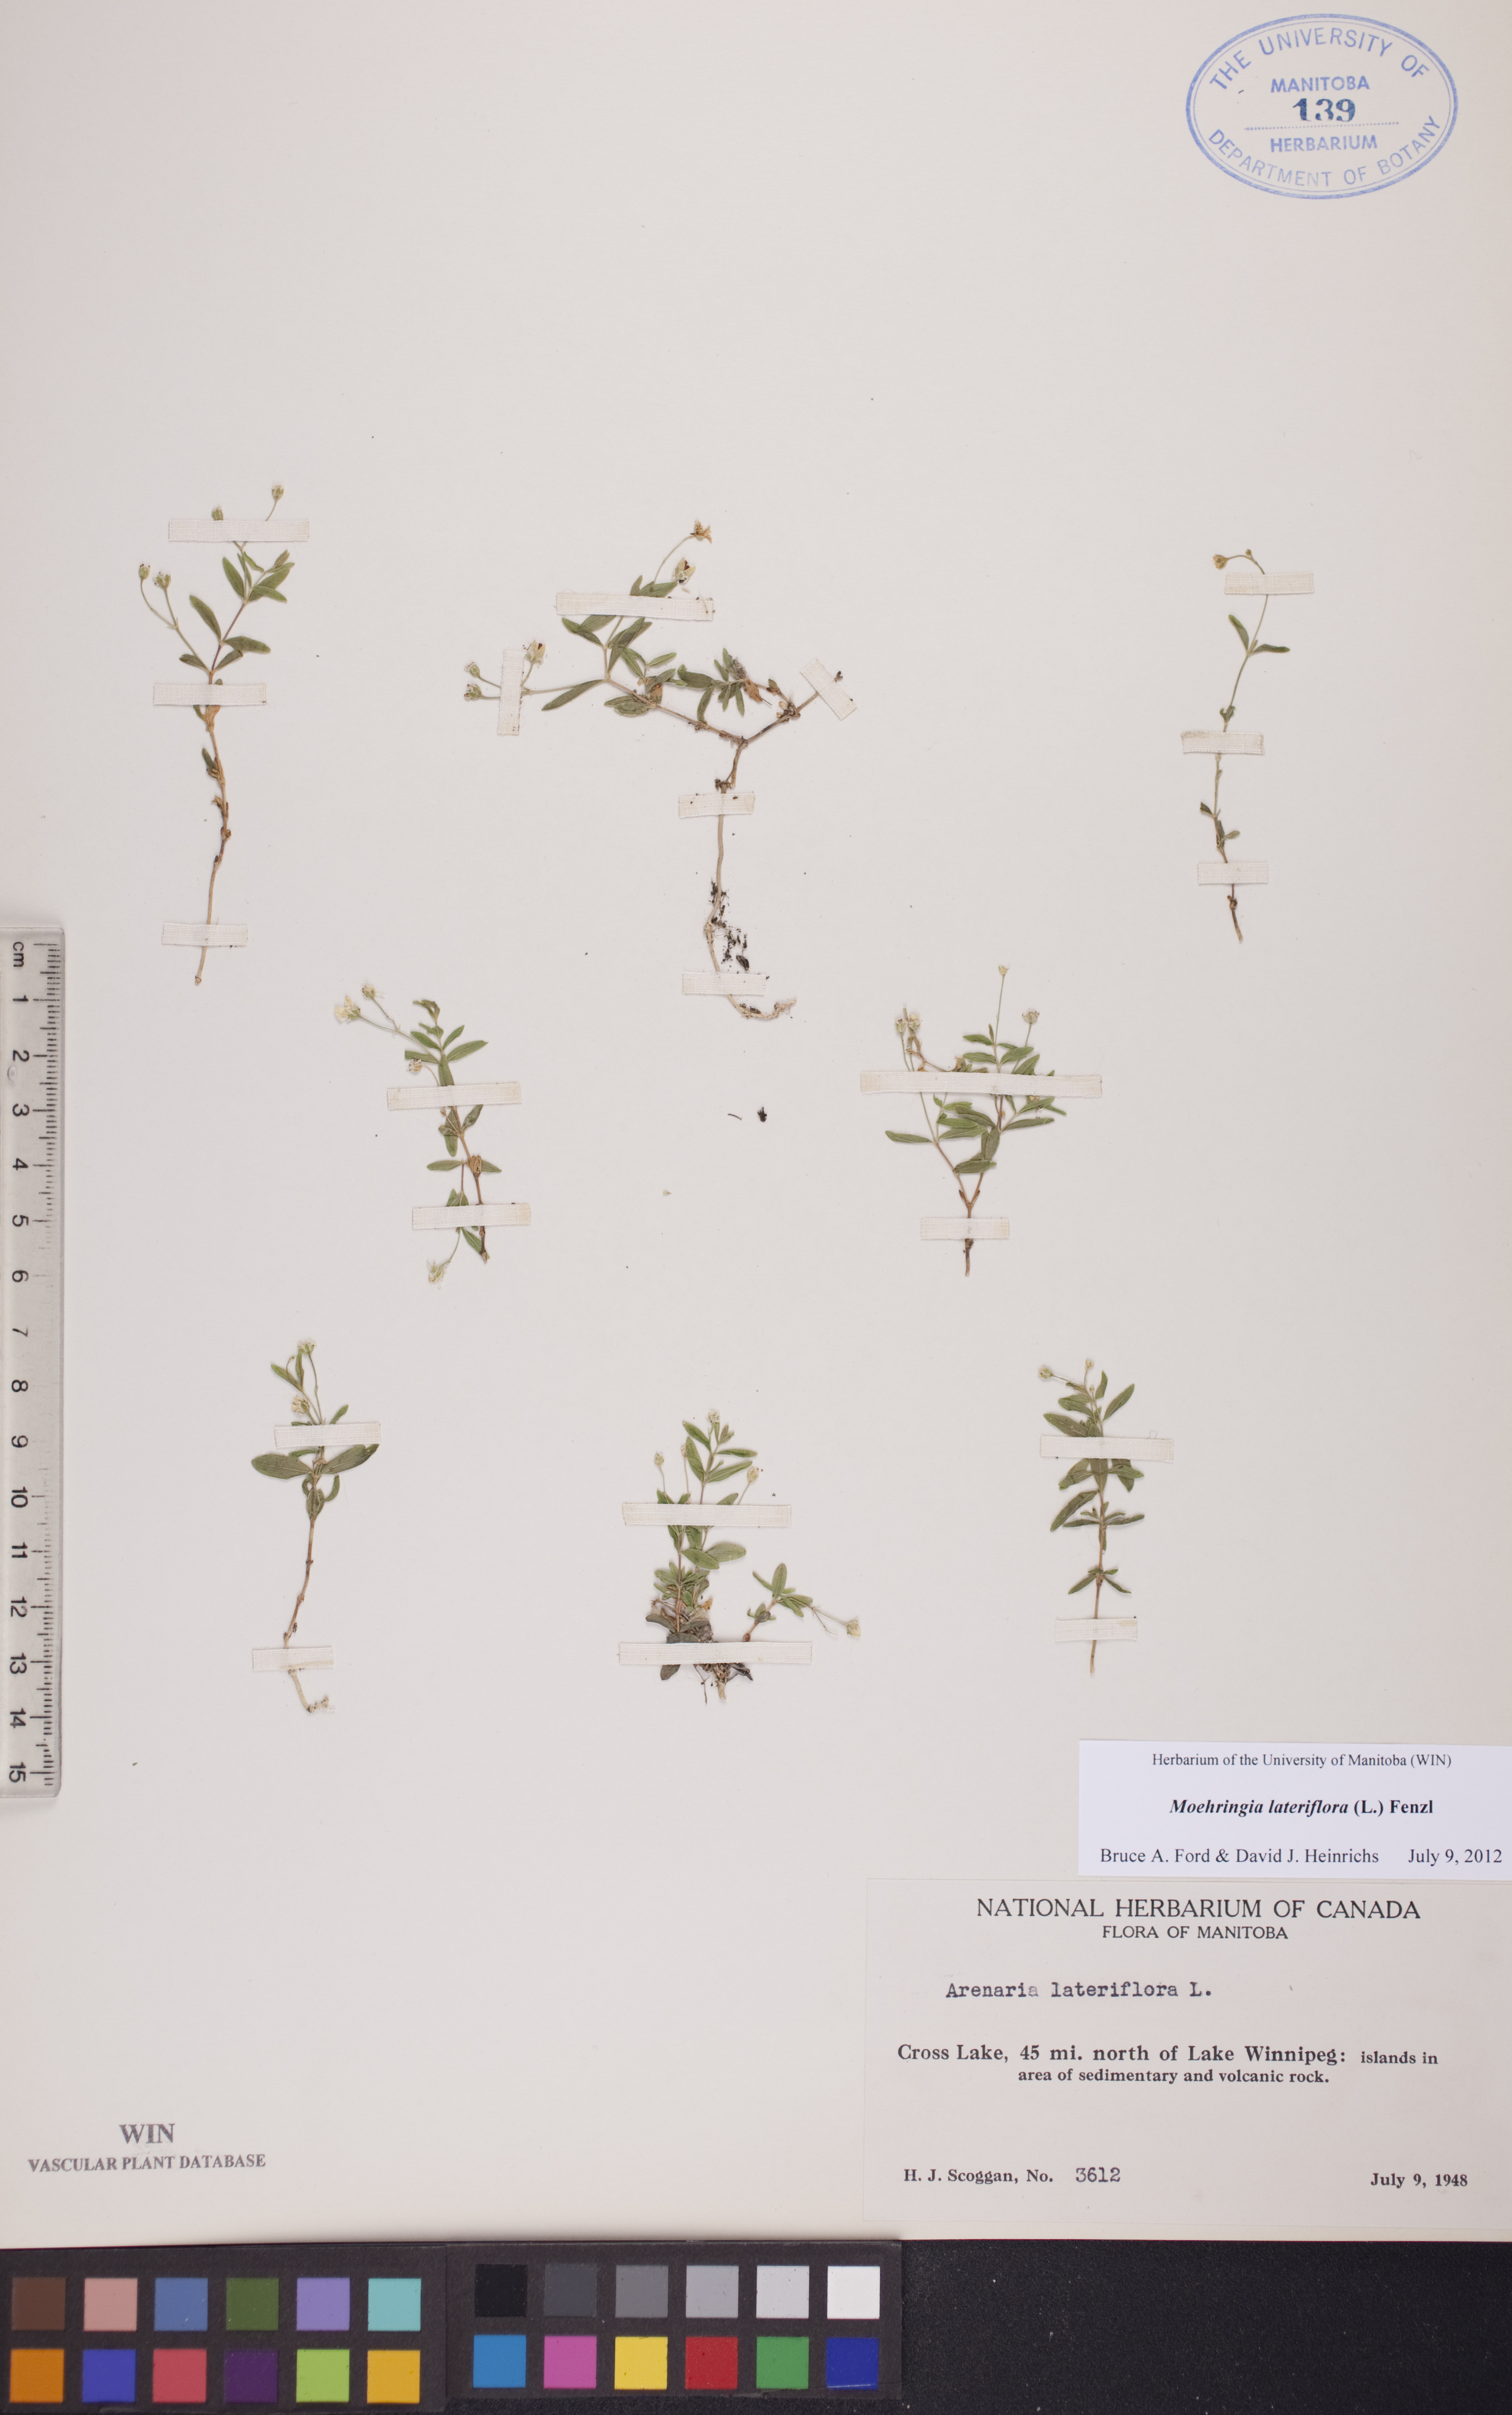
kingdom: Plantae
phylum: Tracheophyta
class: Magnoliopsida
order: Caryophyllales
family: Caryophyllaceae
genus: Moehringia
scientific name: Moehringia lateriflora
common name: Blunt-leaved sandwort
